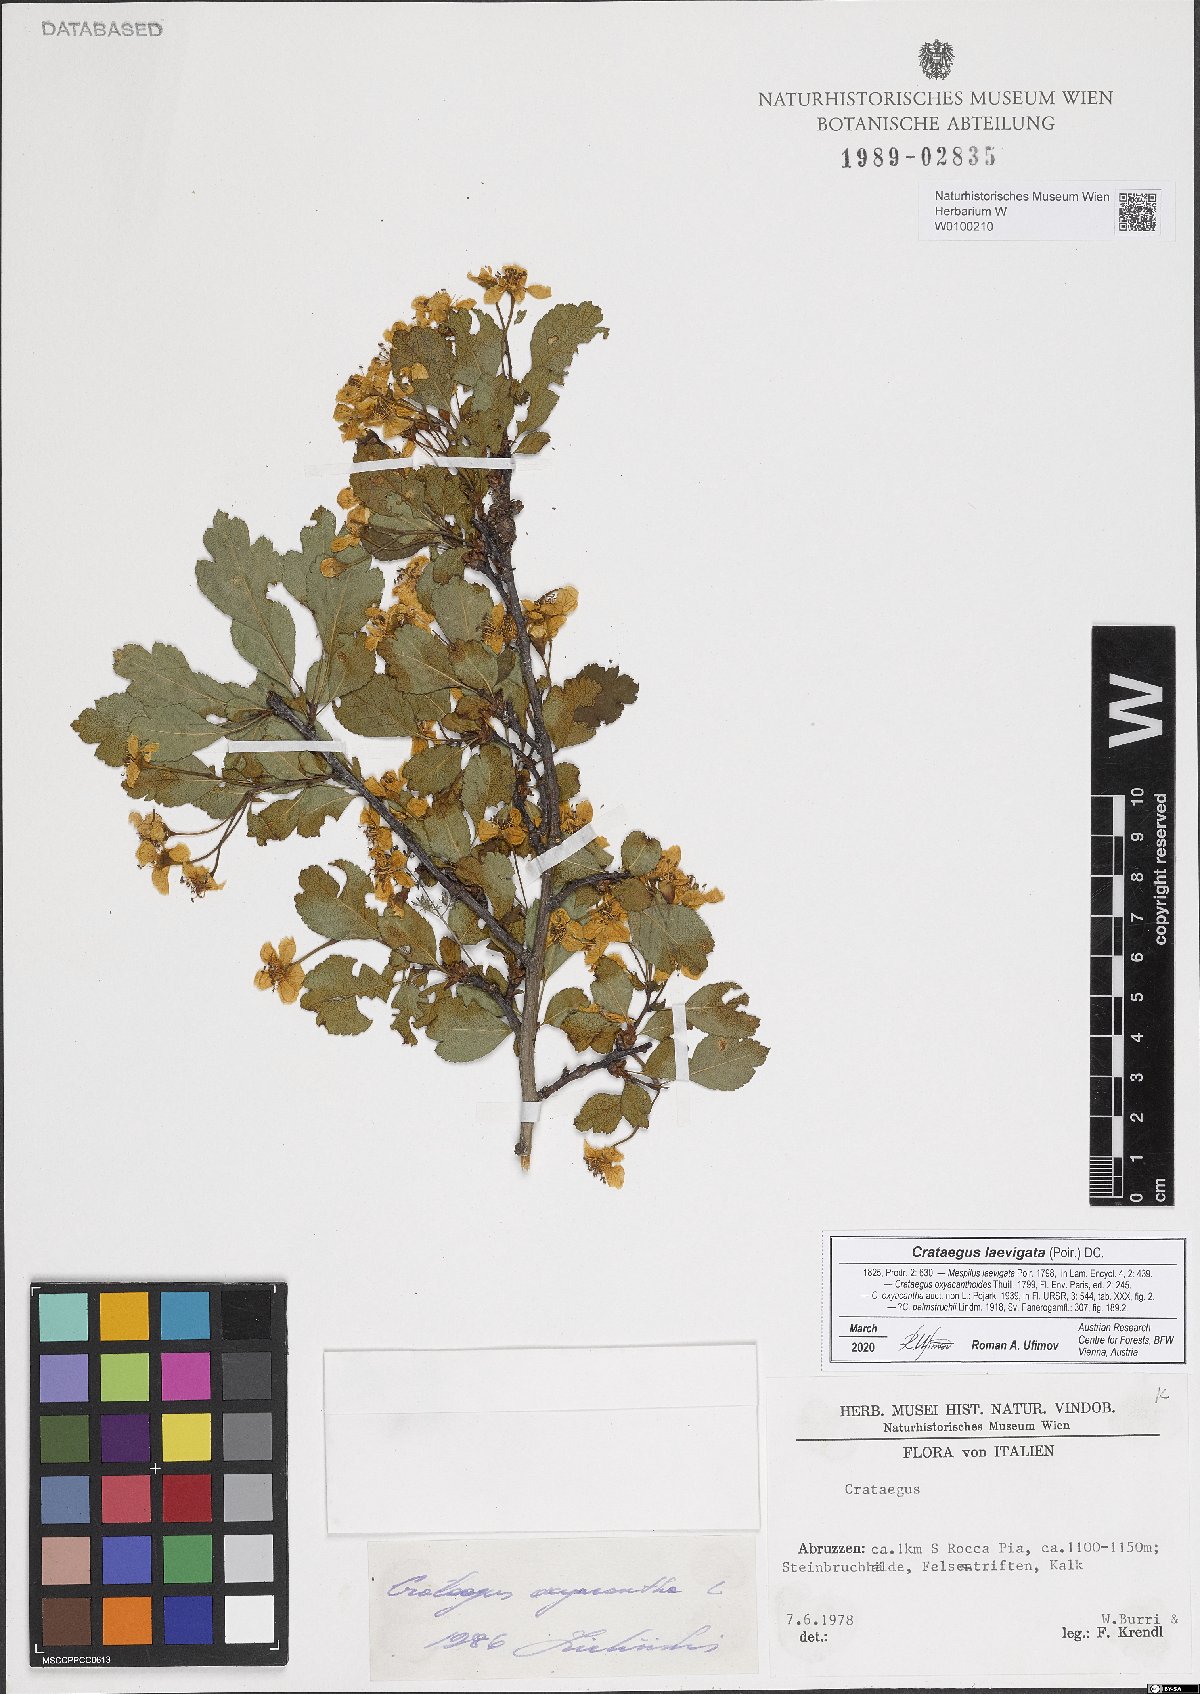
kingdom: Plantae
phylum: Tracheophyta
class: Magnoliopsida
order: Rosales
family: Rosaceae
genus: Crataegus
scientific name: Crataegus laevigata
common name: Midland hawthorn
